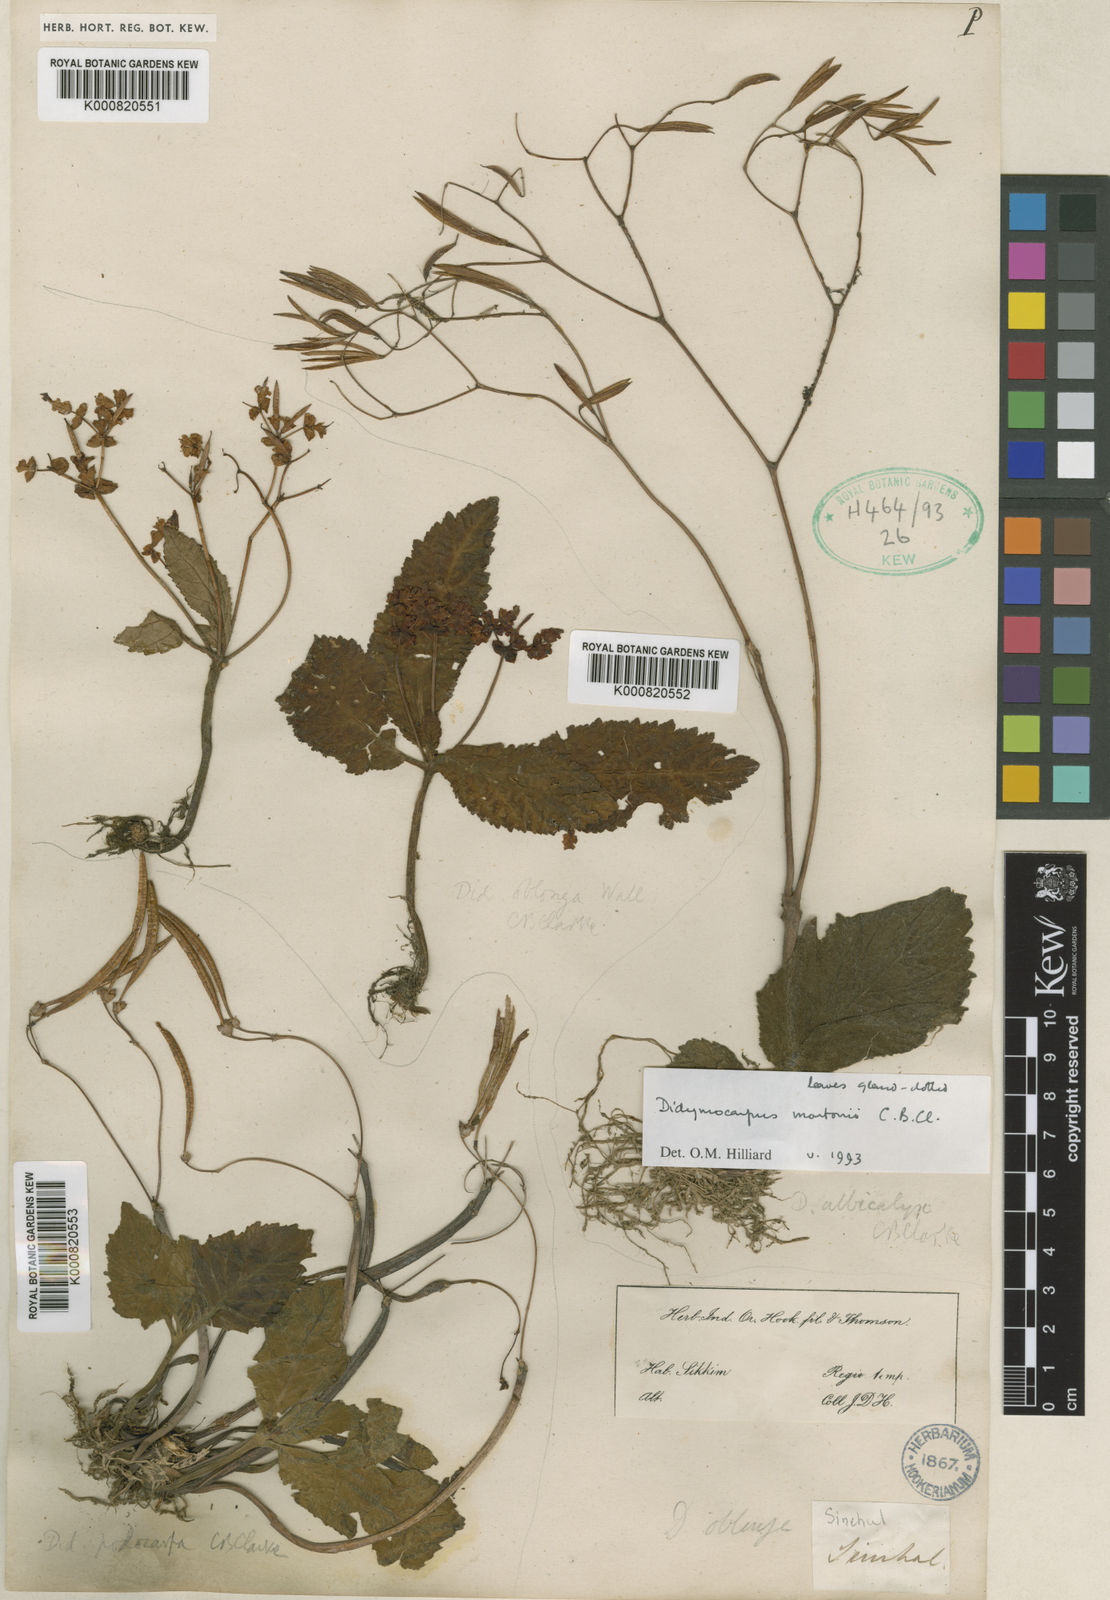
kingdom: Plantae
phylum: Tracheophyta
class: Magnoliopsida
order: Lamiales
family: Gesneriaceae
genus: Didymocarpus
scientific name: Didymocarpus podocarpus
